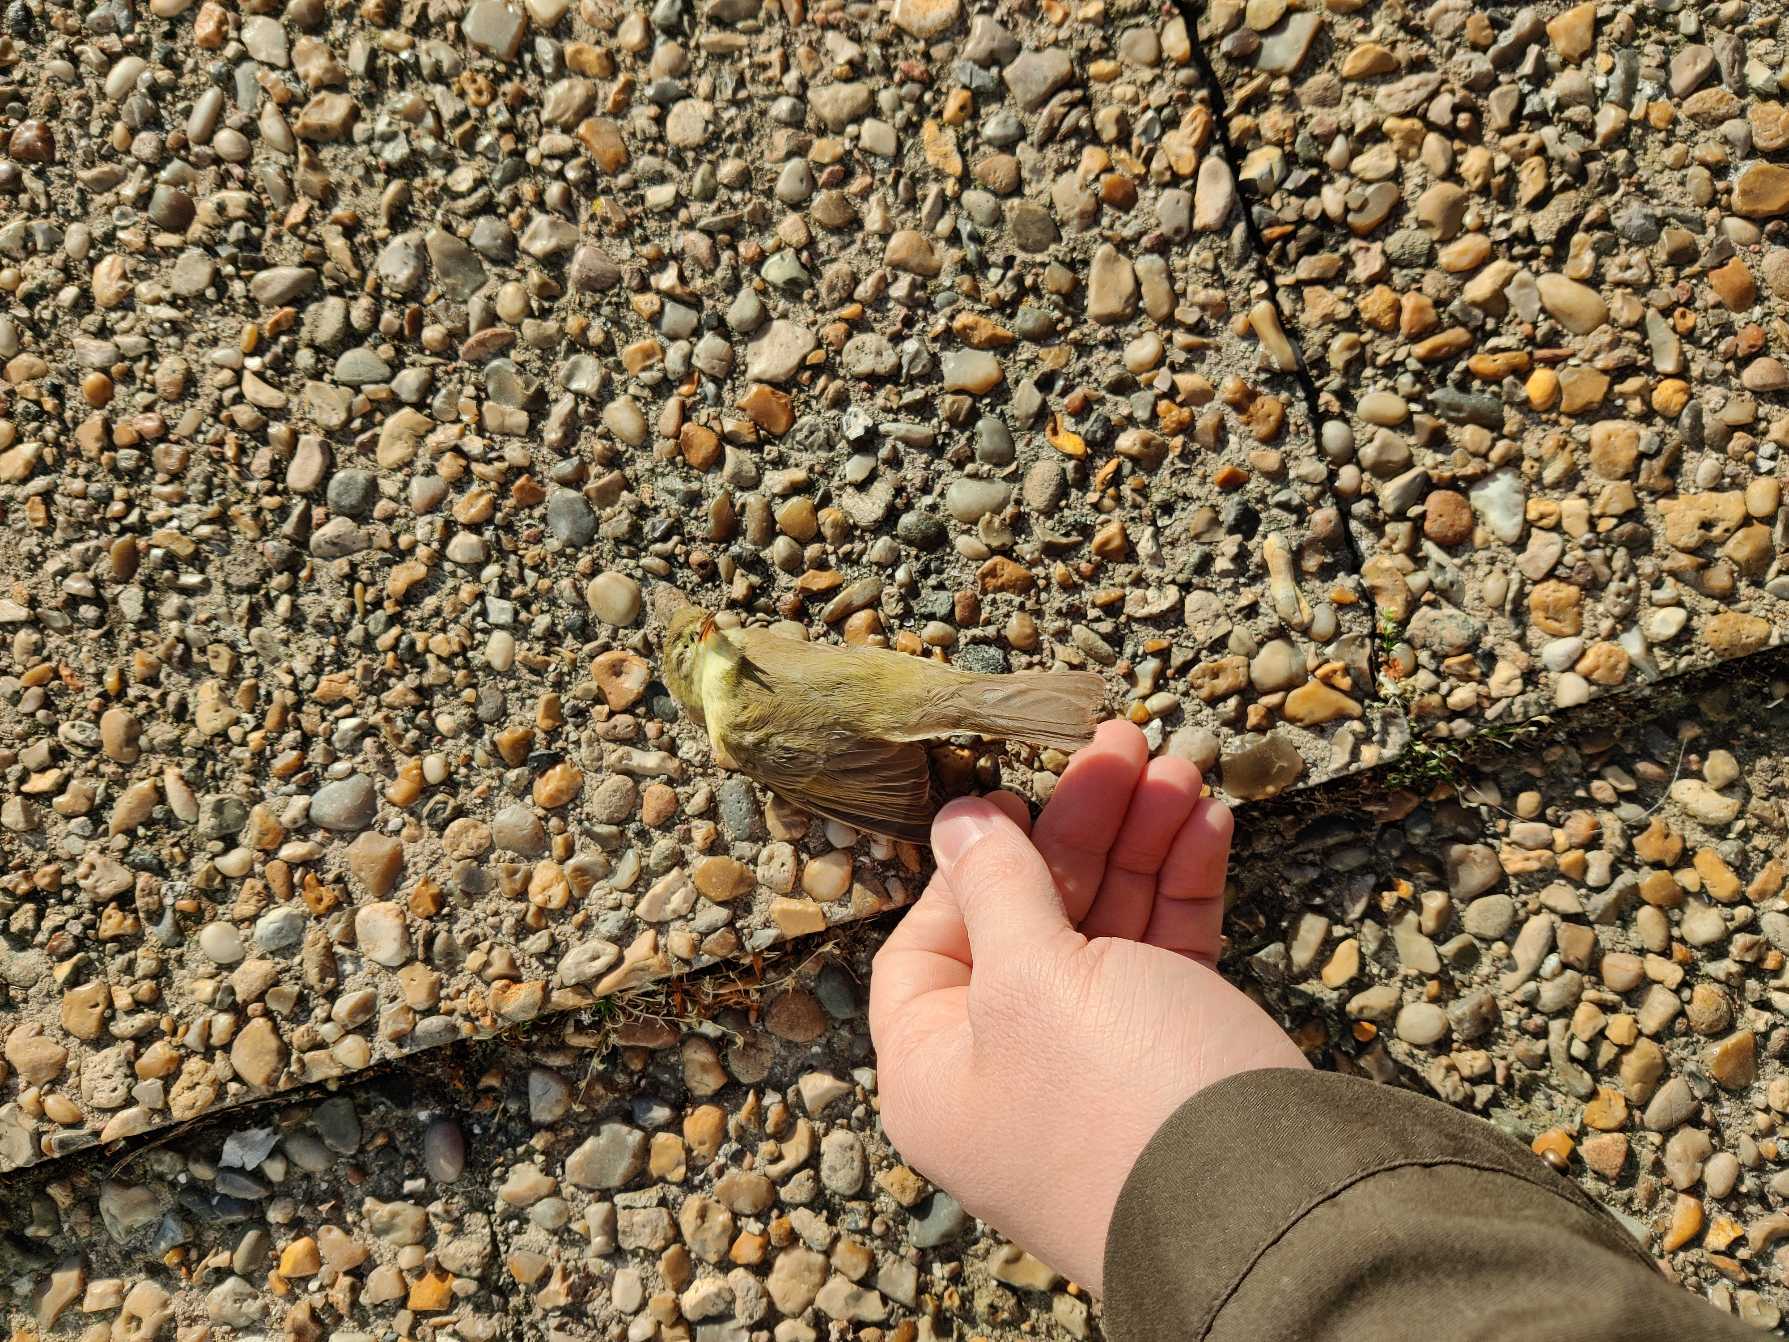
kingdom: Animalia
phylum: Chordata
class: Aves
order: Passeriformes
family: Phylloscopidae
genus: Phylloscopus
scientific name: Phylloscopus trochilus
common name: Løvsanger
